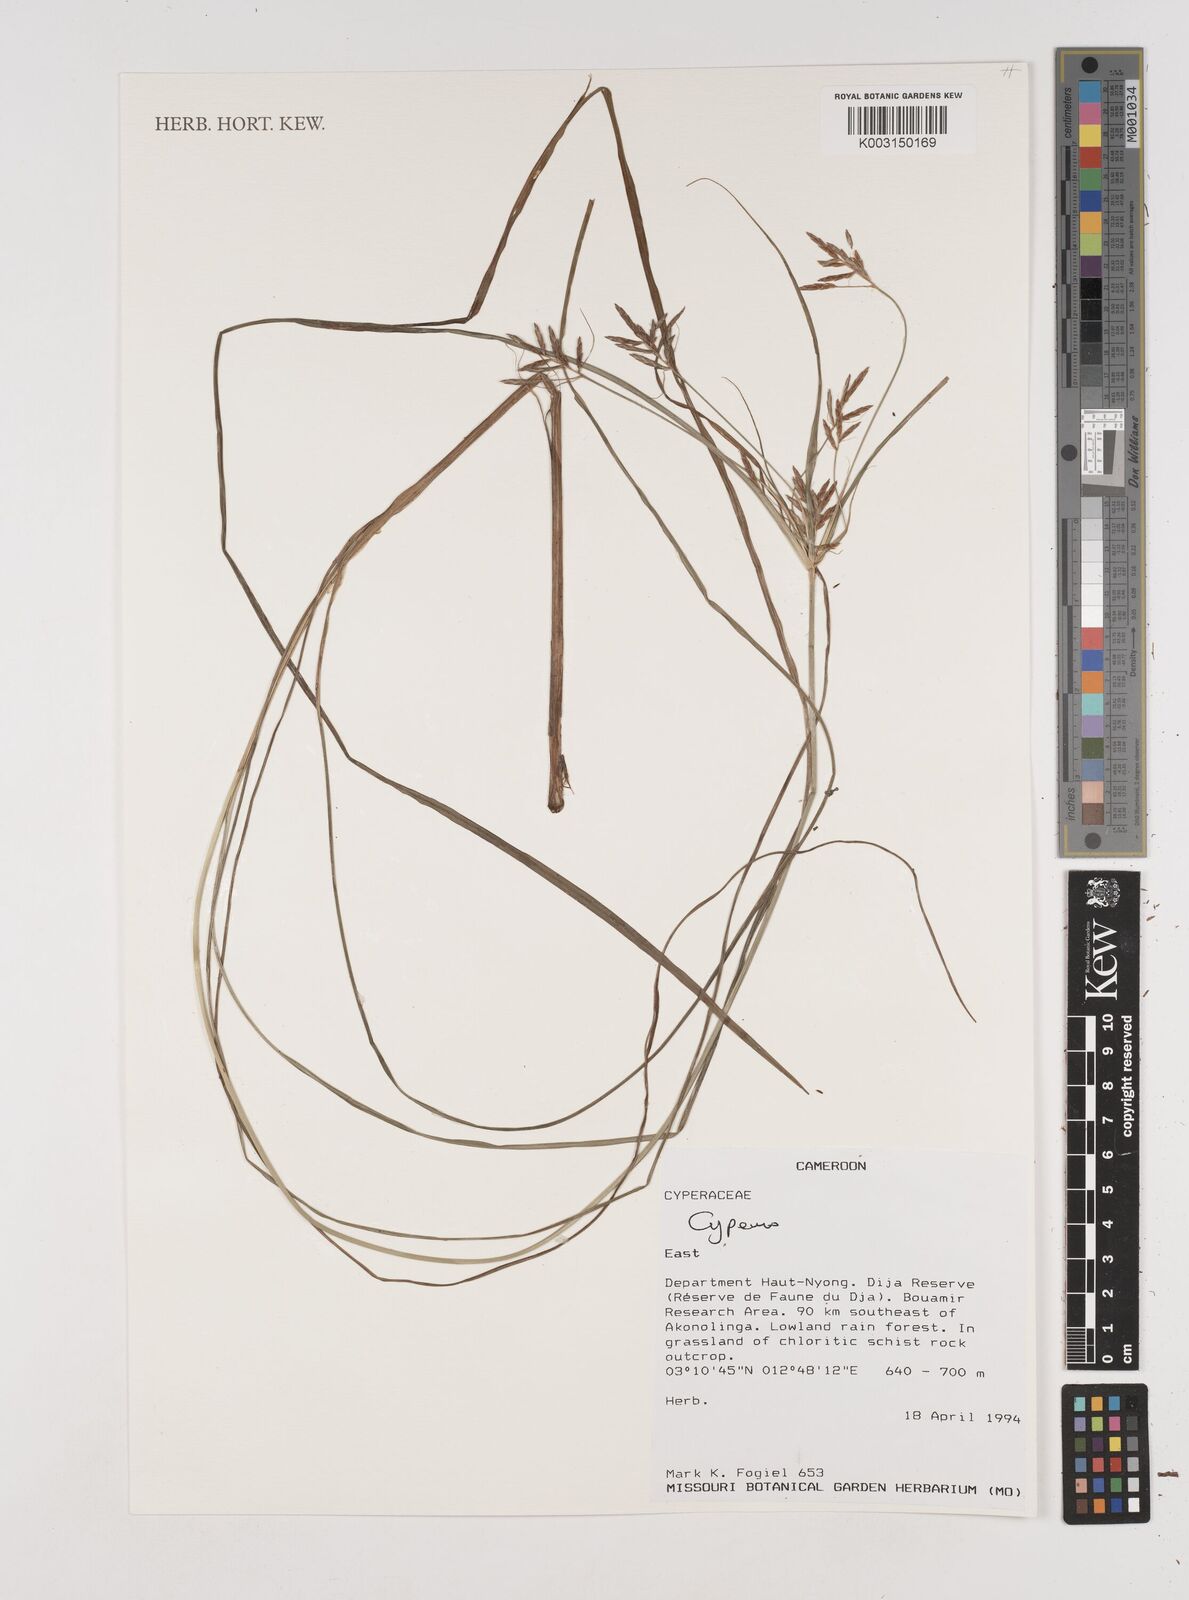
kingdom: Plantae
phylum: Tracheophyta
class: Liliopsida
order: Poales
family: Cyperaceae
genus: Cyperus
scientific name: Cyperus
